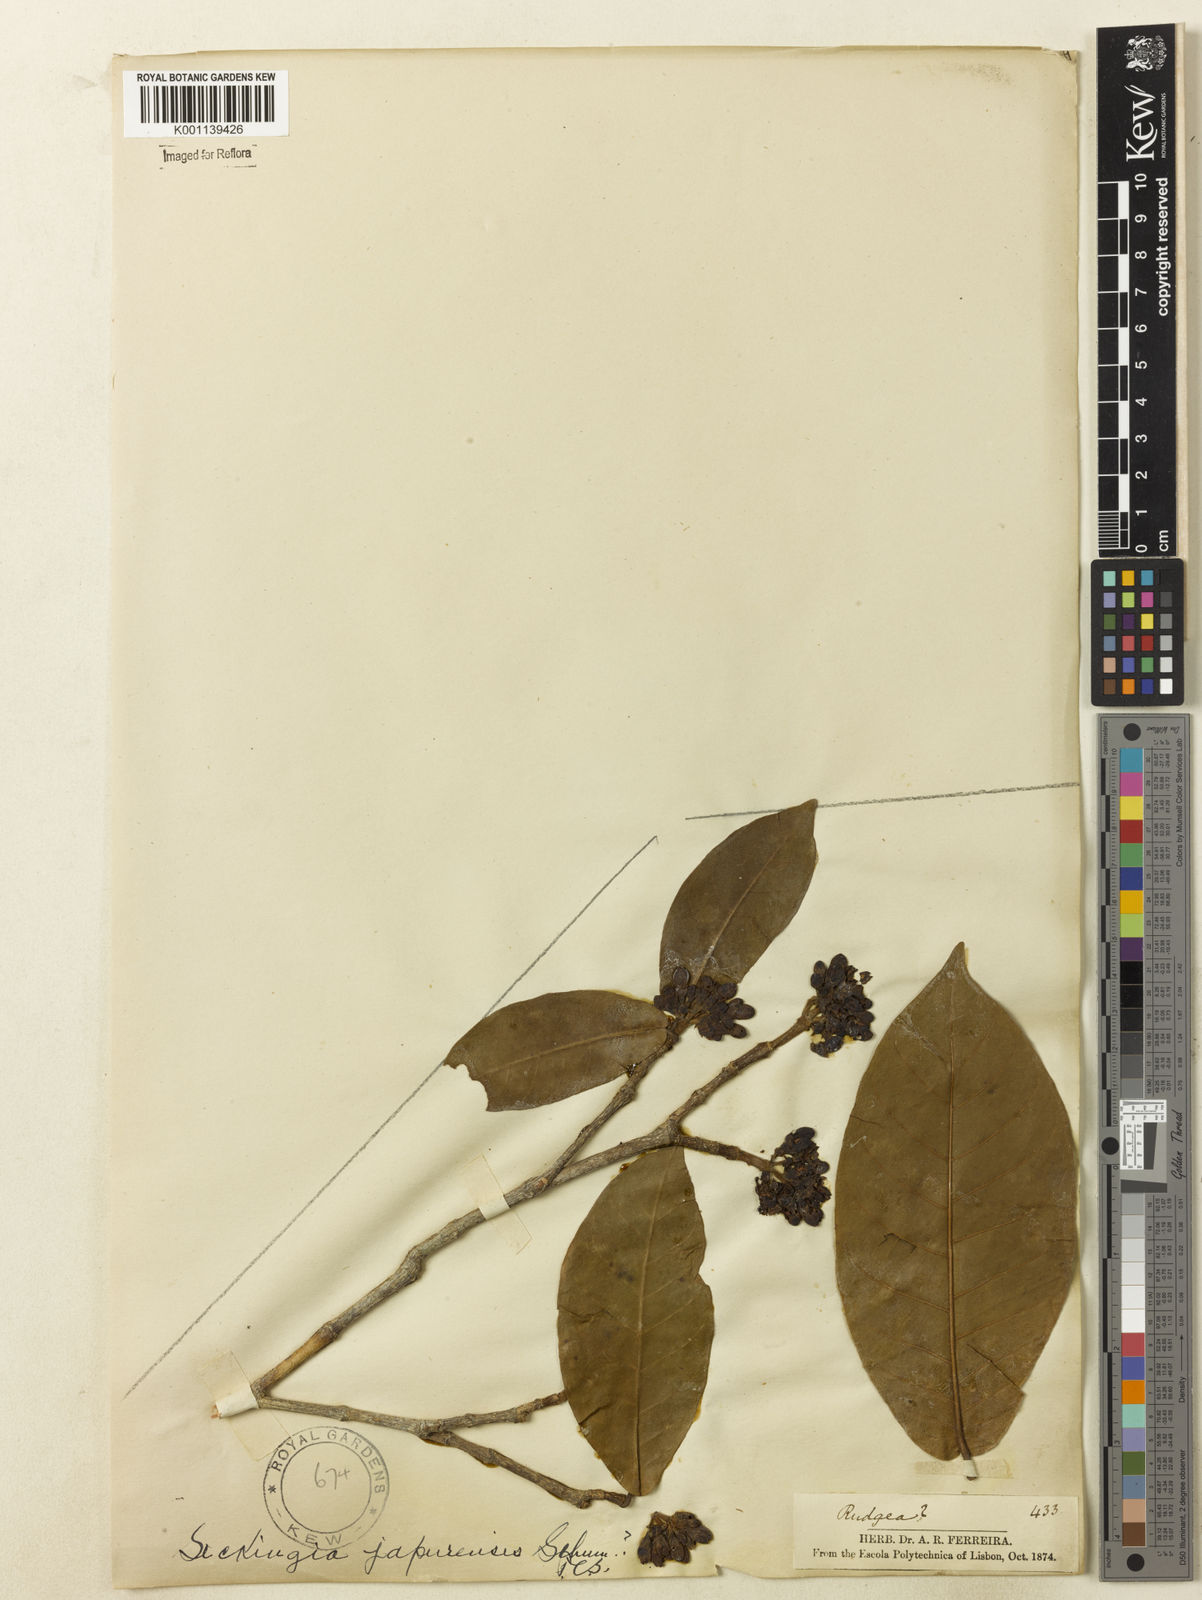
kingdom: Plantae
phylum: Tracheophyta
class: Magnoliopsida
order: Gentianales
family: Rubiaceae
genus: Simira
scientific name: Simira rubescens
